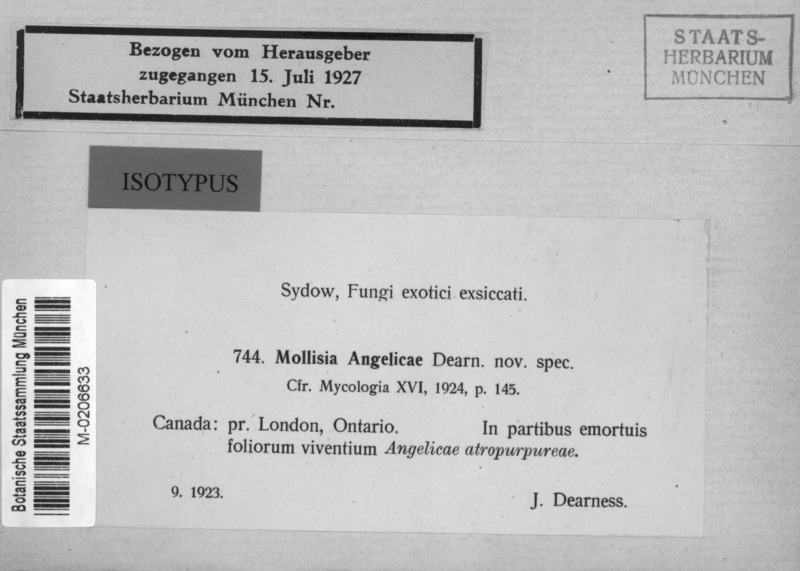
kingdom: Fungi
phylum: Ascomycota
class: Leotiomycetes
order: Helotiales
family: Ploettnerulaceae
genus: Pyrenopeziza
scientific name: Pyrenopeziza angelicae
